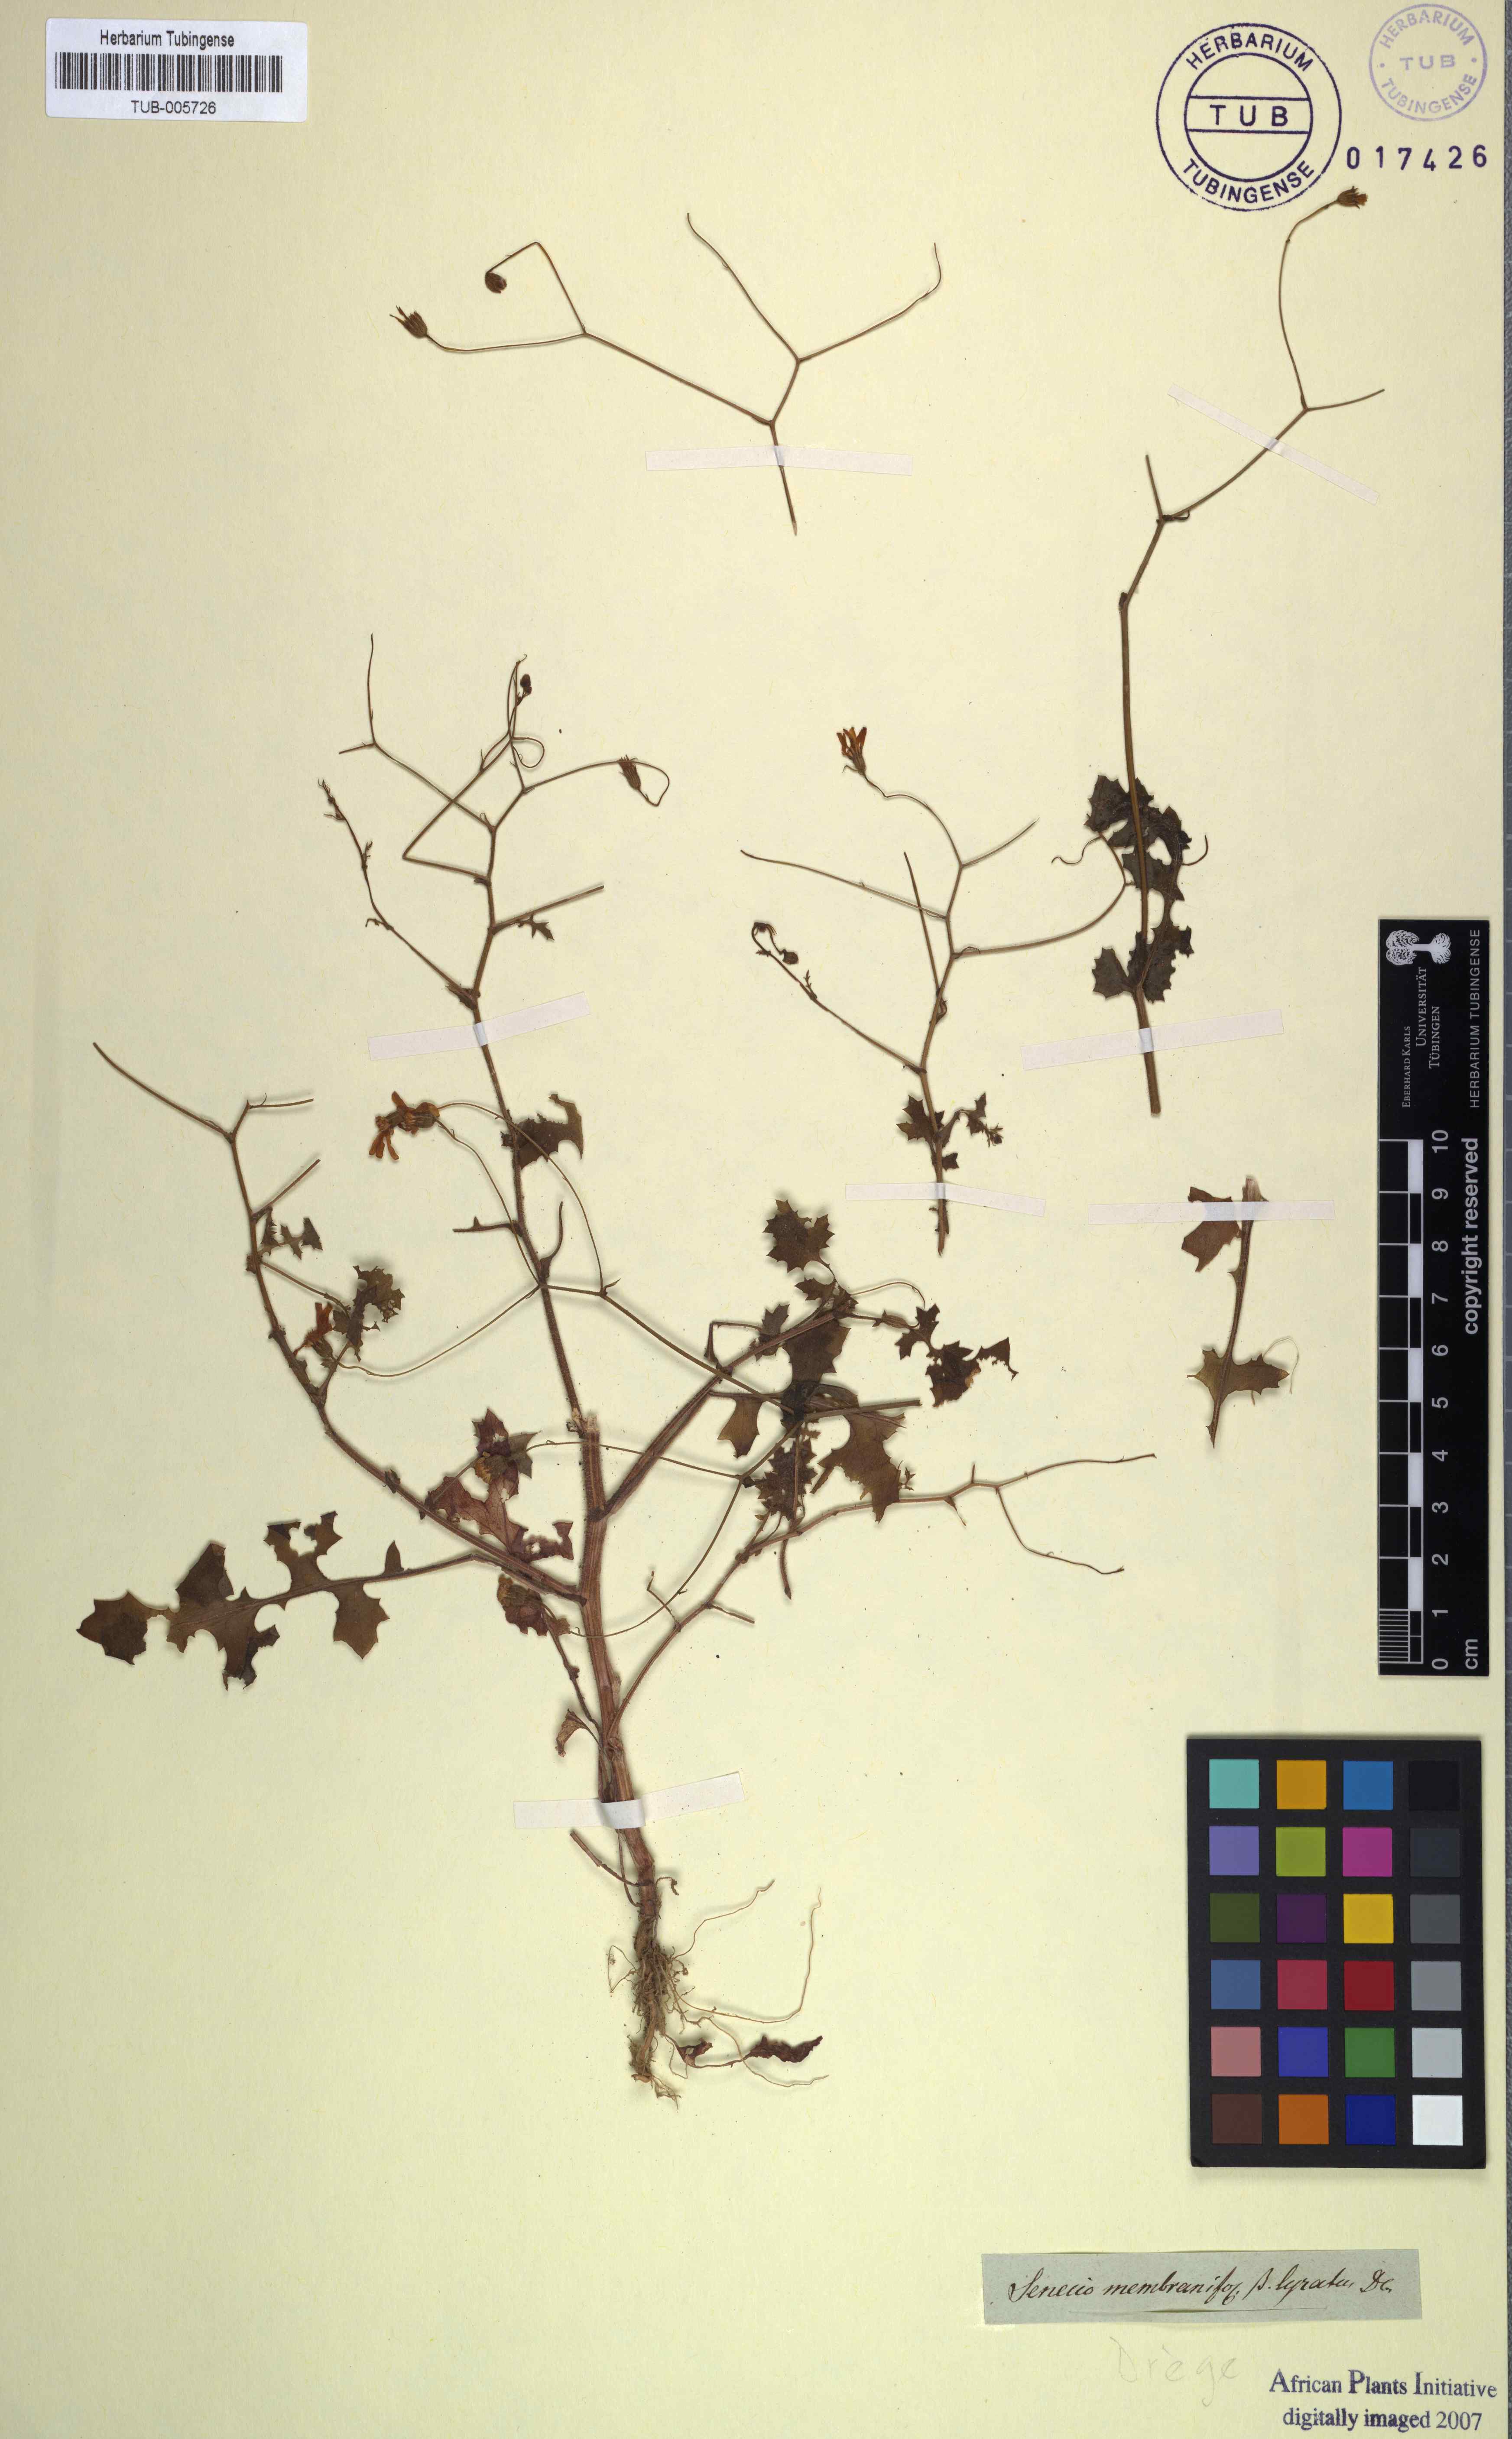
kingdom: Plantae
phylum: Tracheophyta
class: Magnoliopsida
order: Asterales
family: Asteraceae
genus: Senecio
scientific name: Senecio repandus
